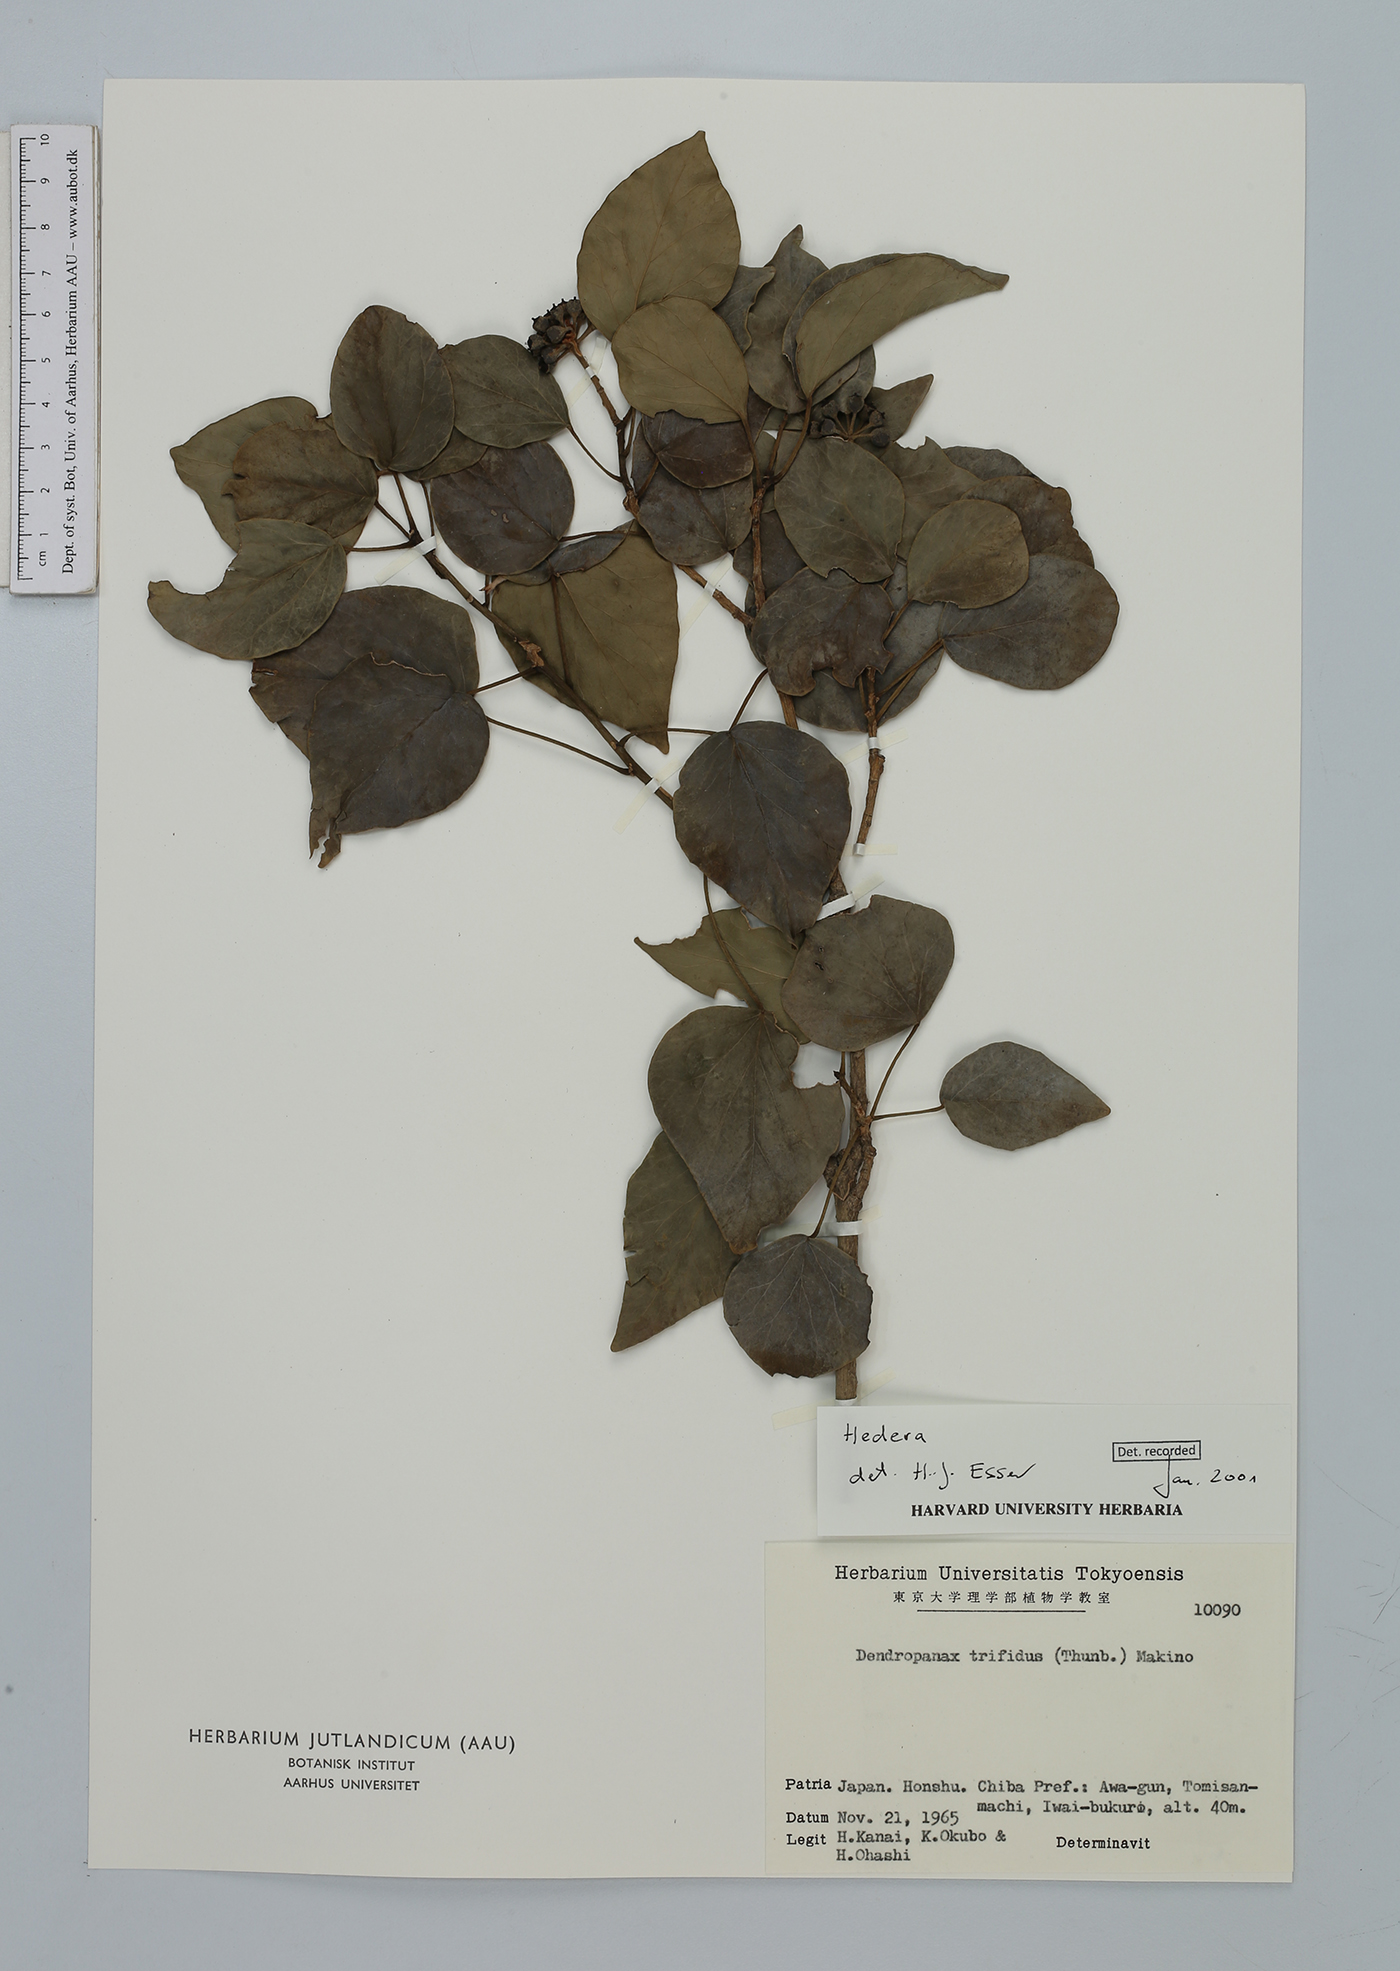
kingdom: Plantae
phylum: Tracheophyta
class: Magnoliopsida
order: Apiales
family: Araliaceae
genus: Hedera
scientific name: Hedera
